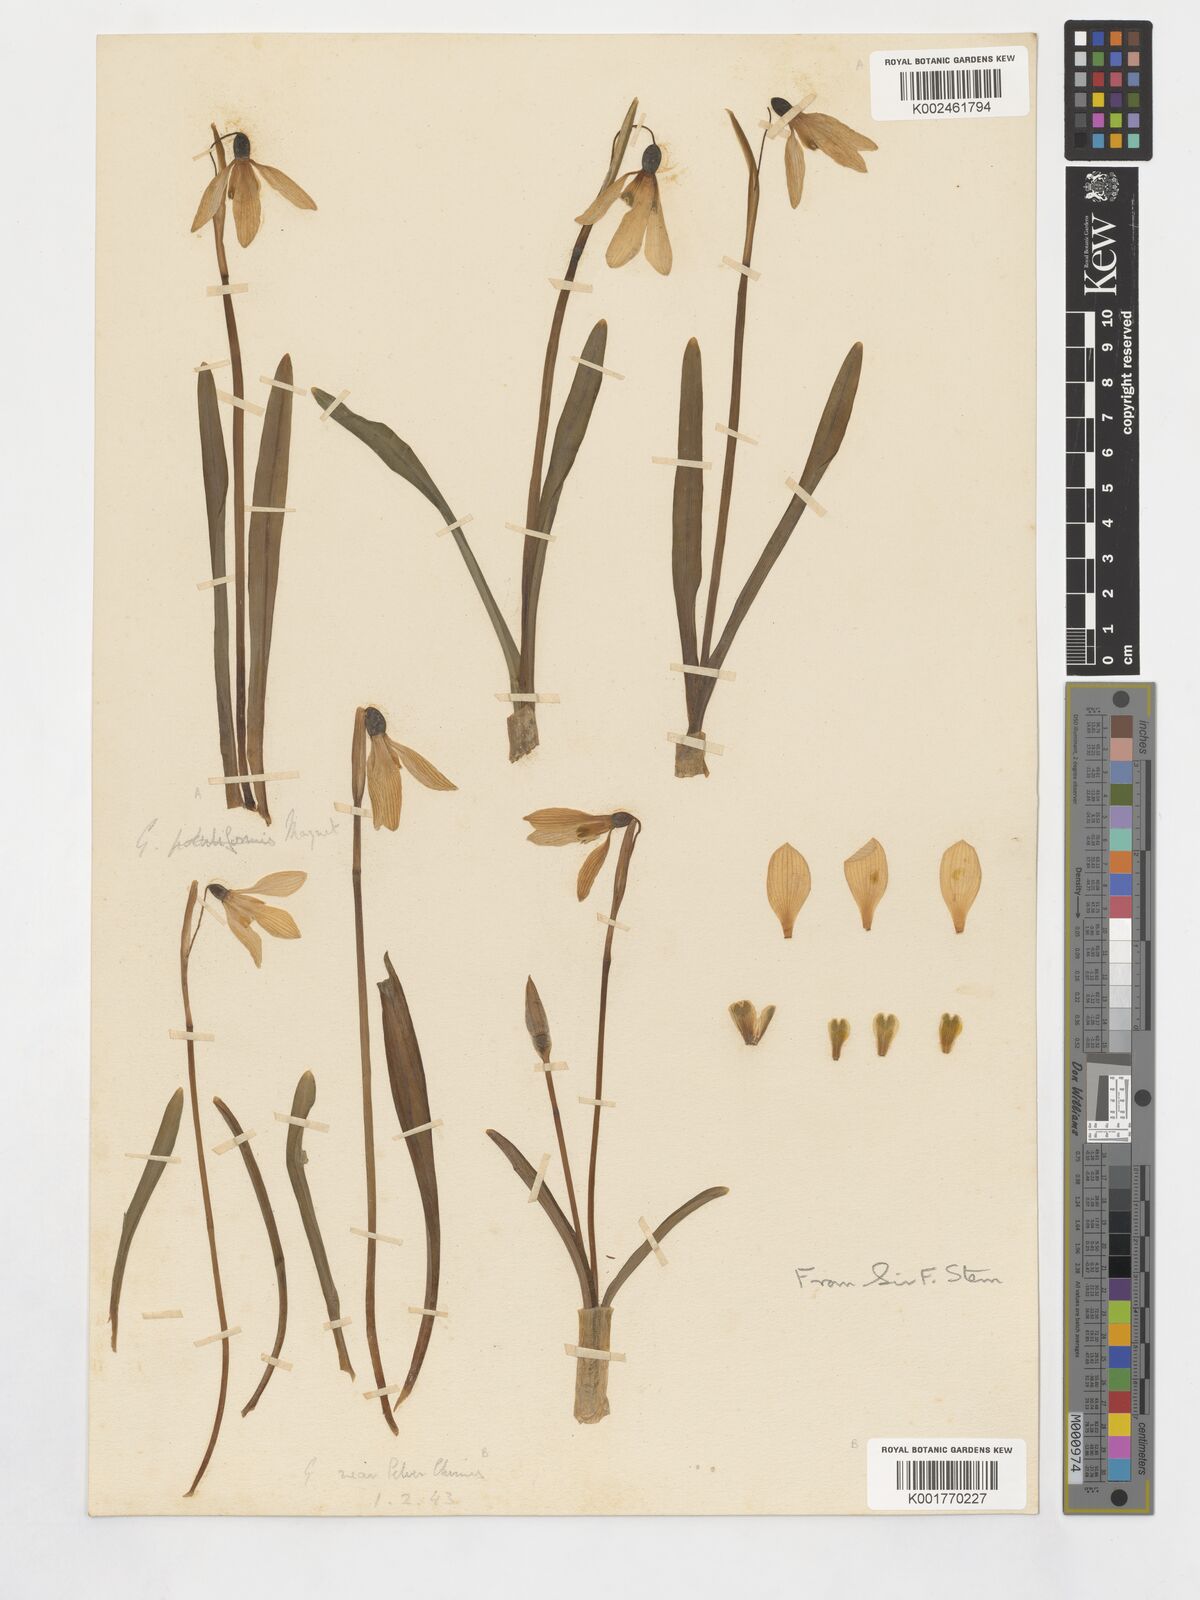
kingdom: Plantae
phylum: Tracheophyta
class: Liliopsida
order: Asparagales
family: Amaryllidaceae
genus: Galanthus
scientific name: Galanthus
